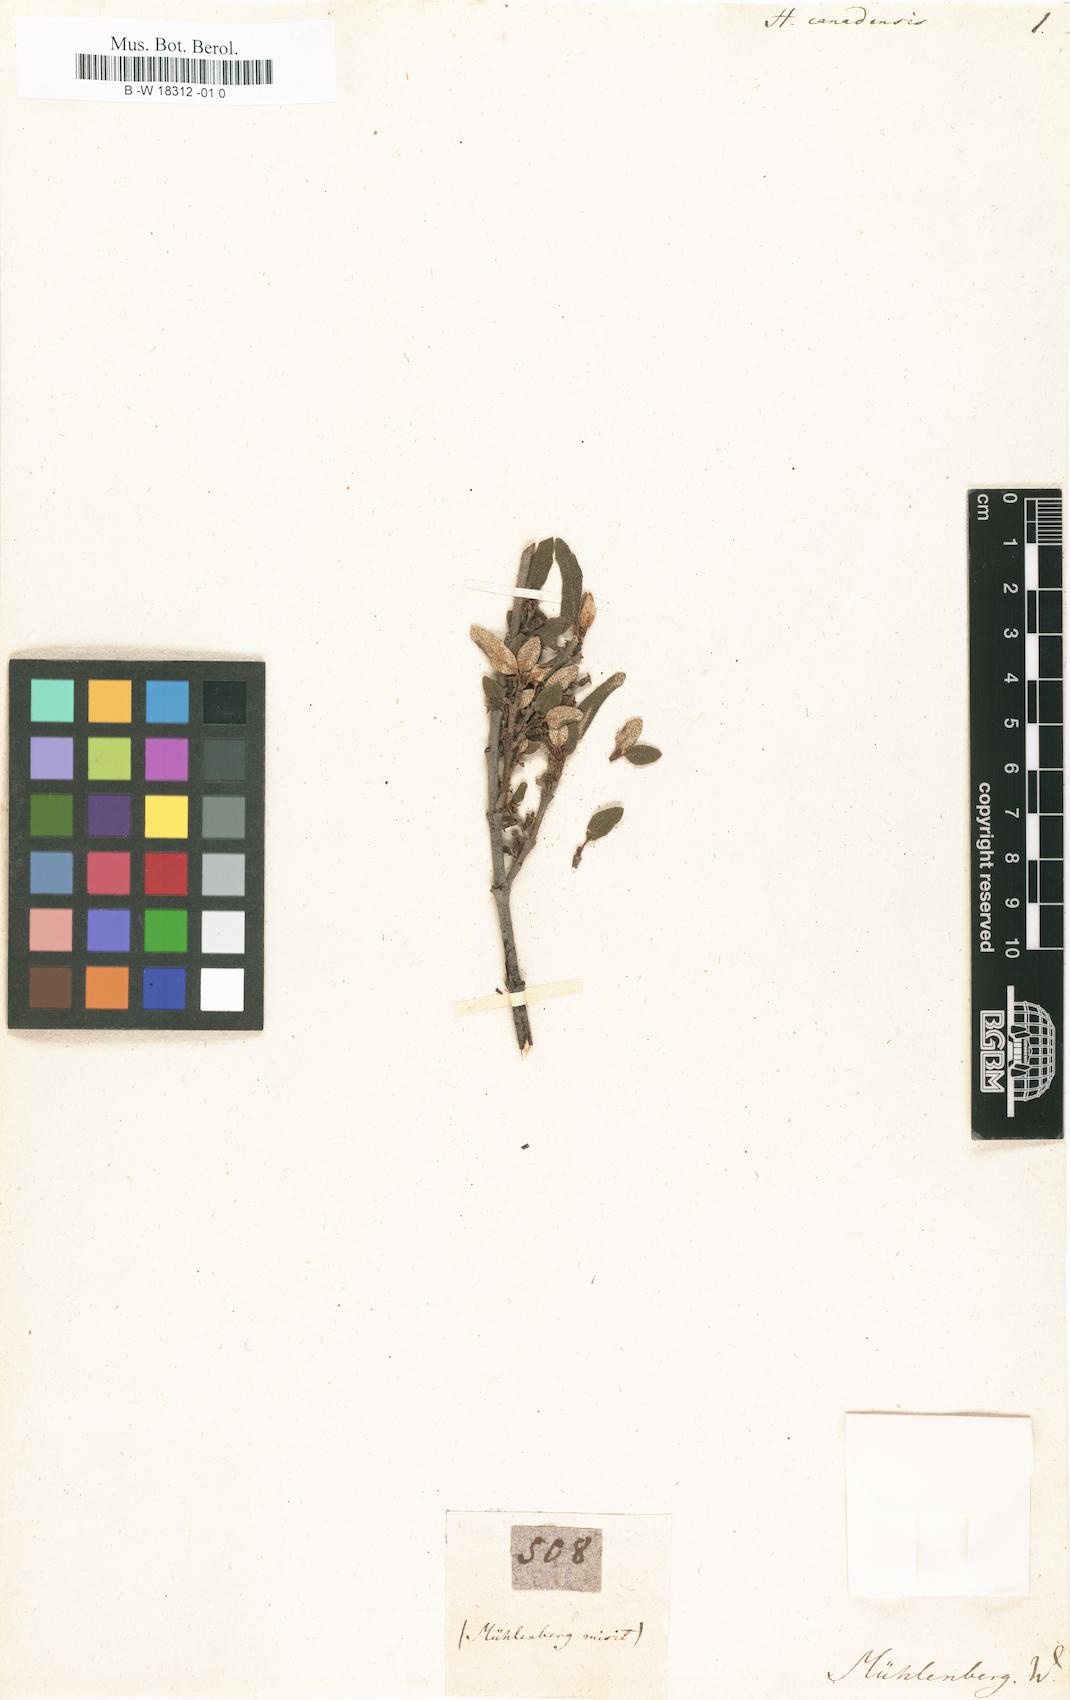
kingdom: Plantae
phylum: Tracheophyta
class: Magnoliopsida
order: Rosales
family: Elaeagnaceae
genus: Shepherdia
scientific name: Shepherdia canadensis
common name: Soapberry
